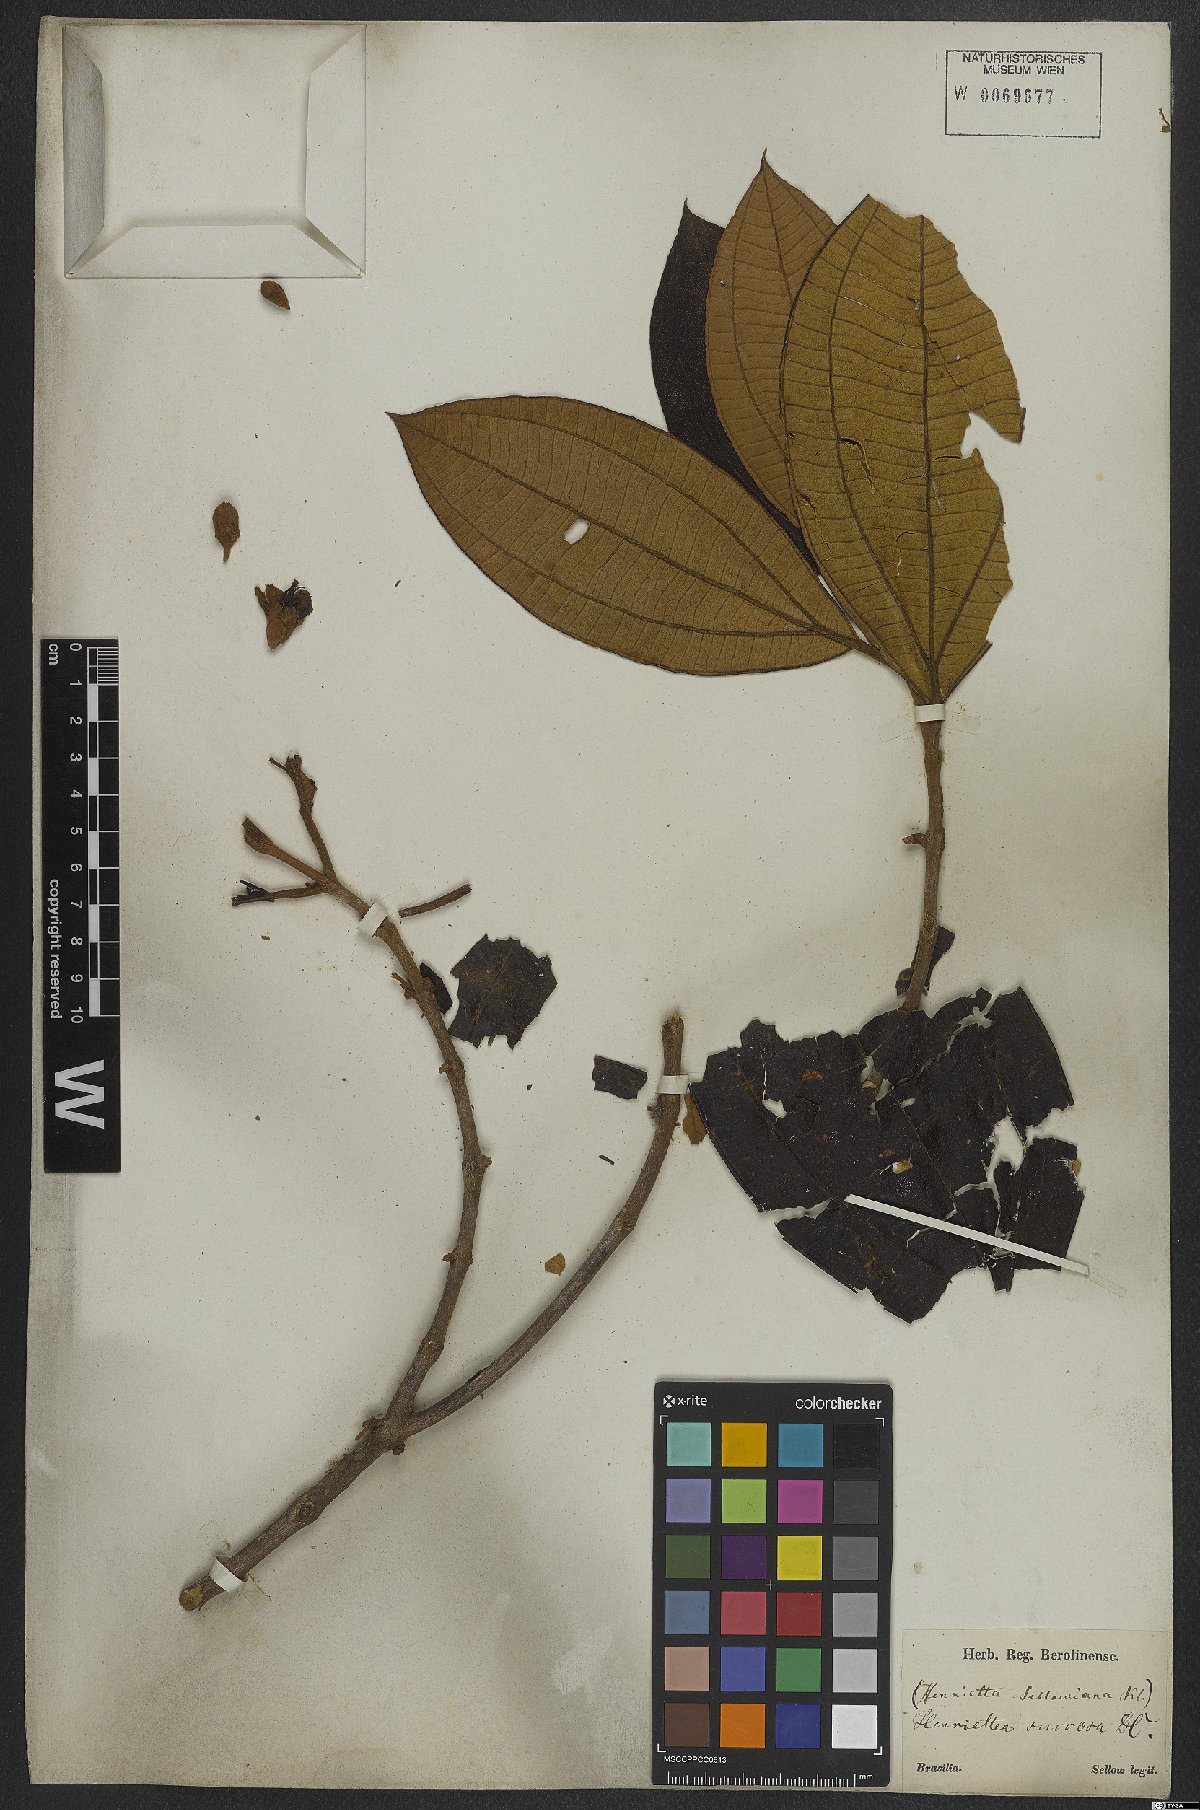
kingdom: Plantae
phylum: Tracheophyta
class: Magnoliopsida
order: Myrtales
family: Melastomataceae
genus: Henriettea
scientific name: Henriettea succosa
